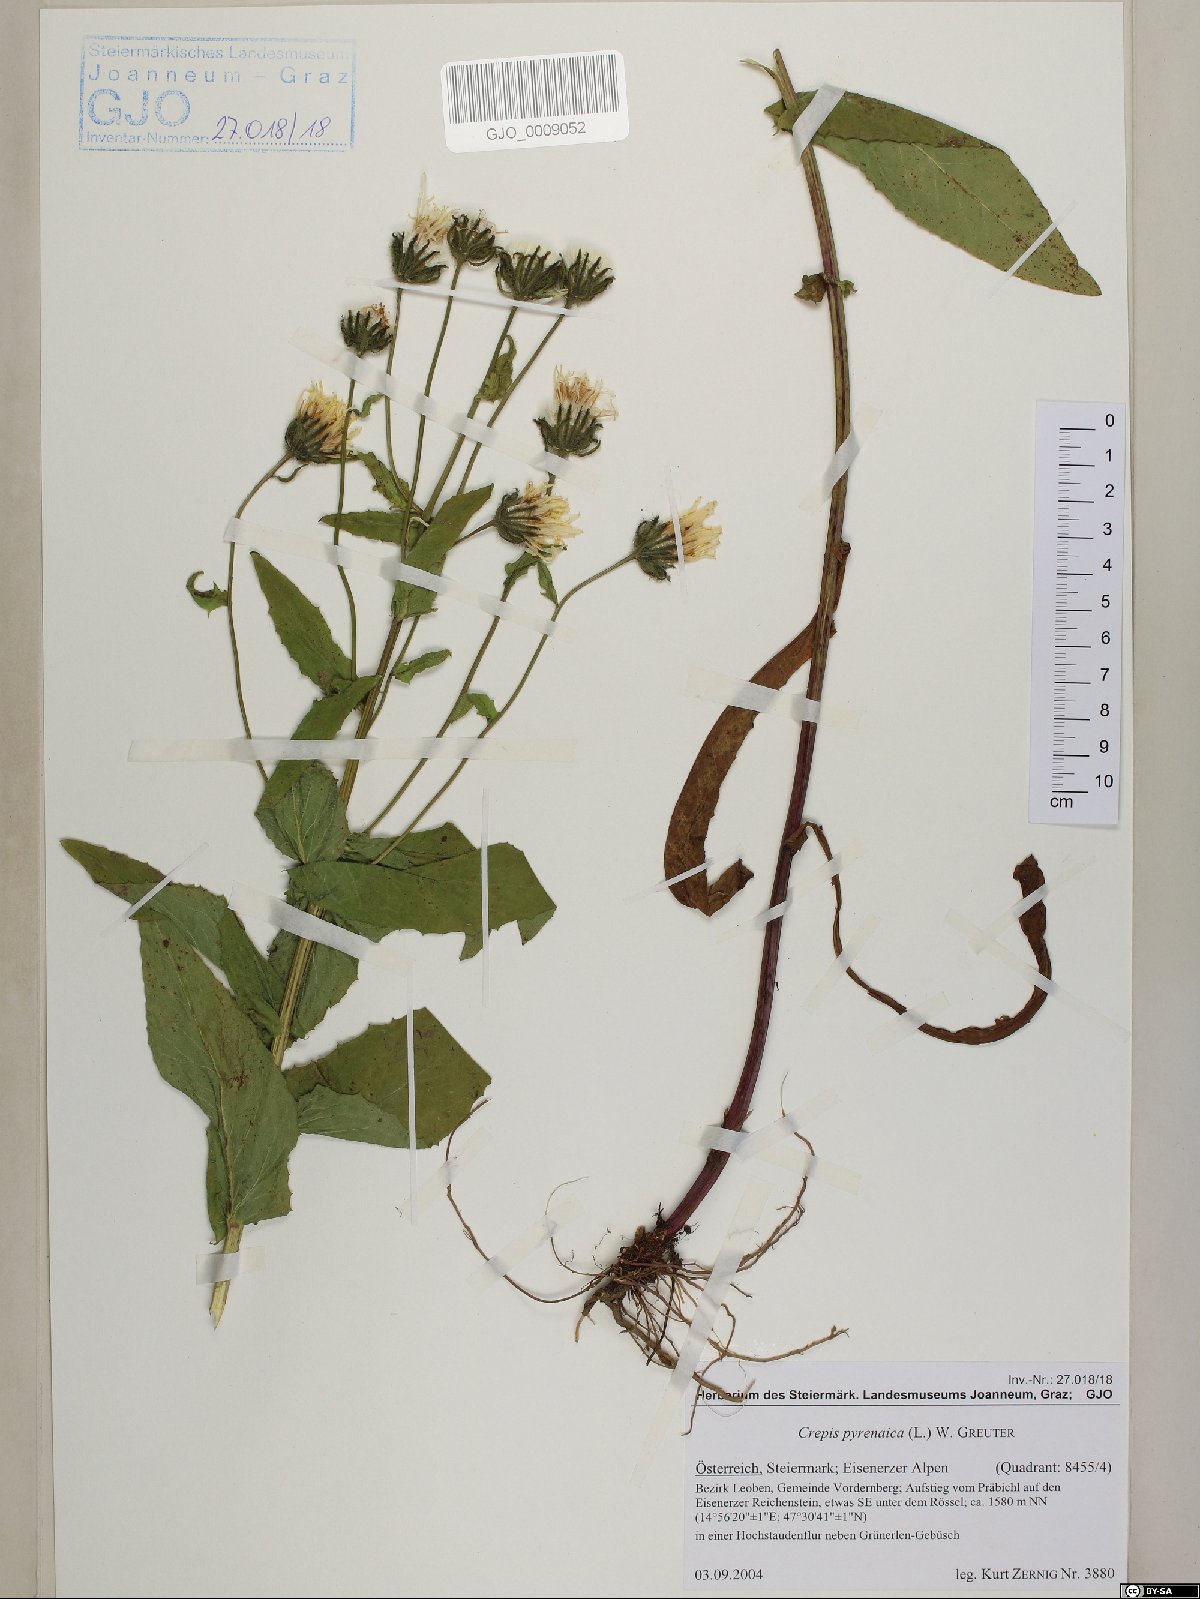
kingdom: Plantae
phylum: Tracheophyta
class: Magnoliopsida
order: Asterales
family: Asteraceae
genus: Crepis
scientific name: Crepis pyrenaica
